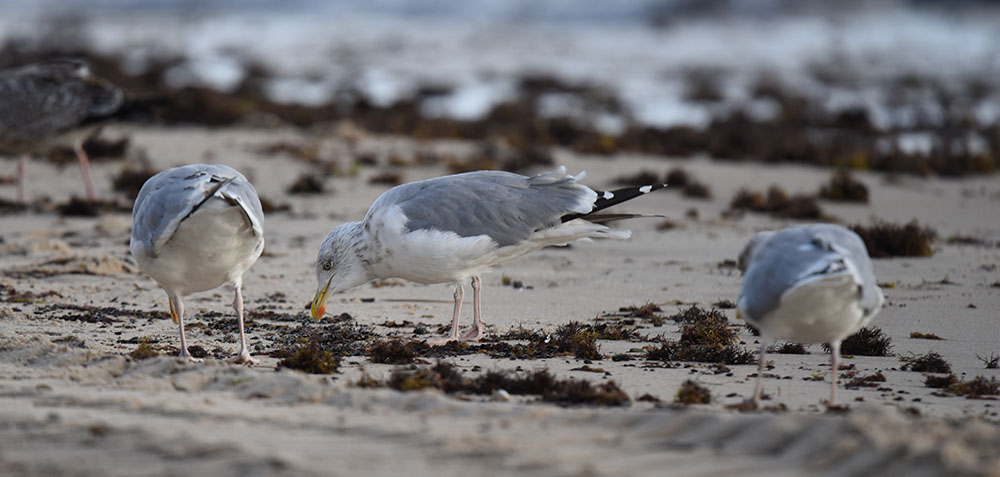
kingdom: Animalia
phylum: Chordata
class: Aves
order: Charadriiformes
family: Laridae
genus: Larus
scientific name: Larus argentatus
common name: Herring gull
